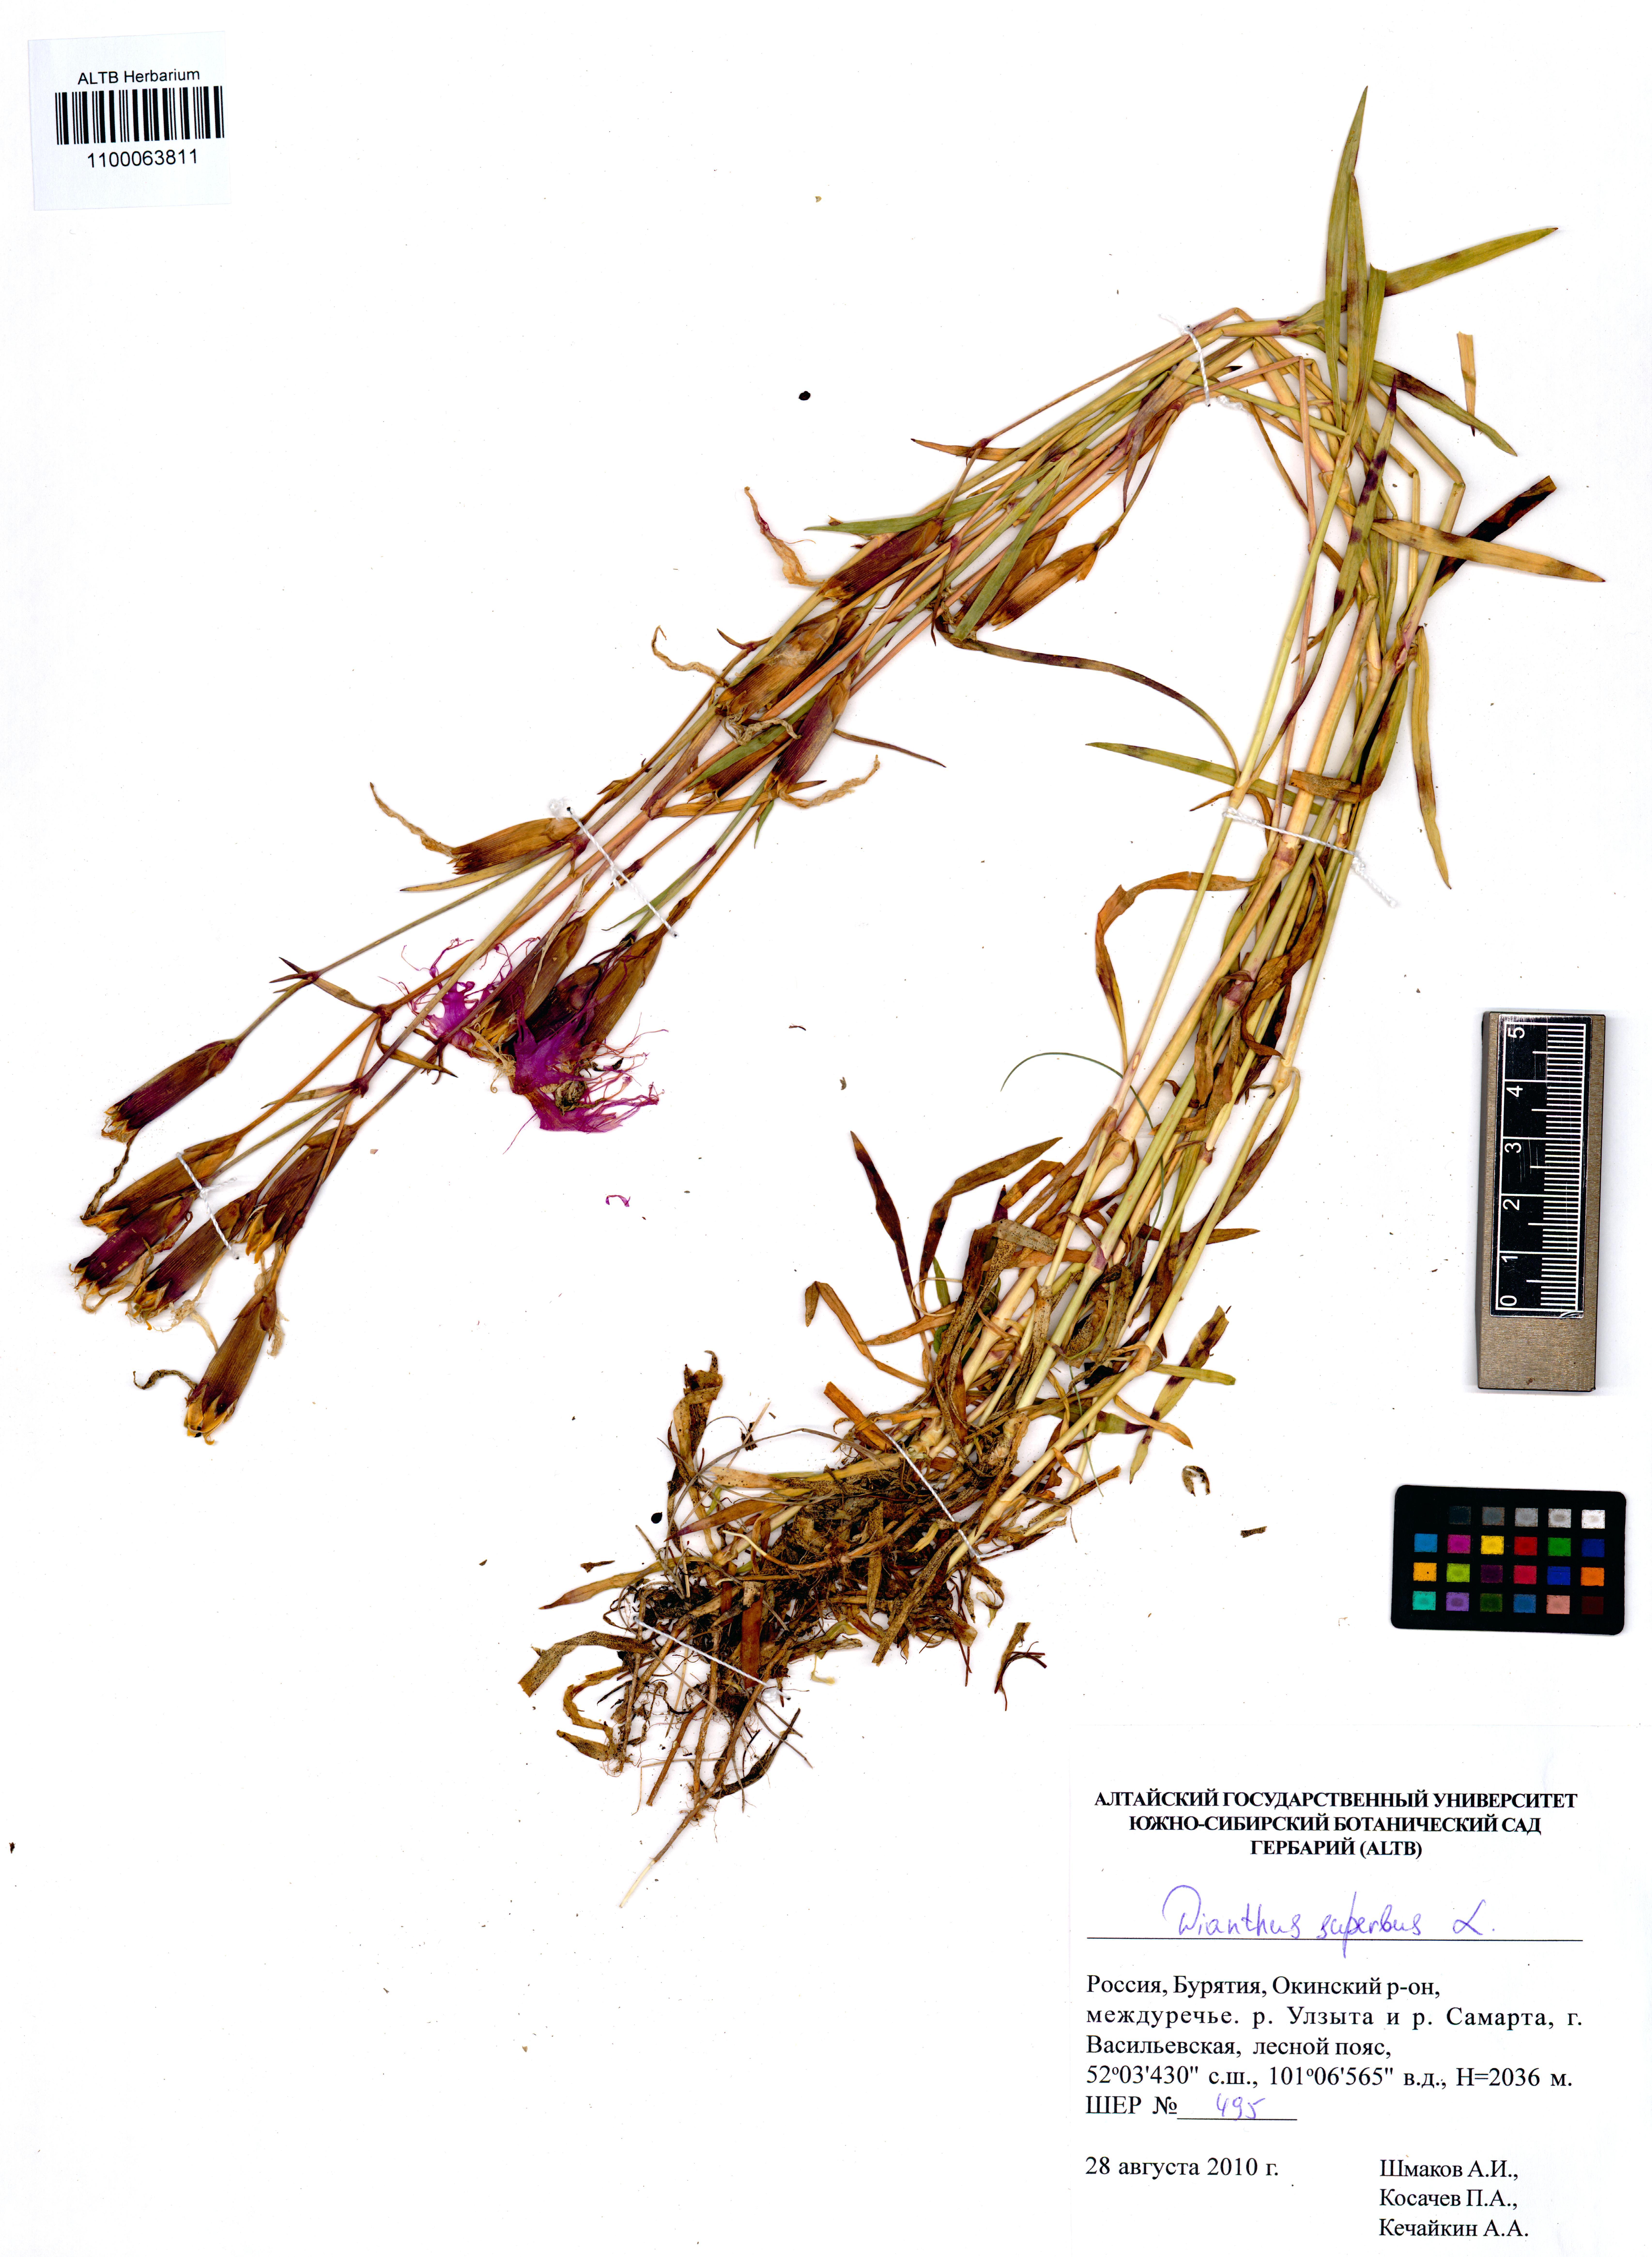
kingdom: Plantae
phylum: Tracheophyta
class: Magnoliopsida
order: Caryophyllales
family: Caryophyllaceae
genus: Dianthus
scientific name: Dianthus superbus
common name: Fringed pink
